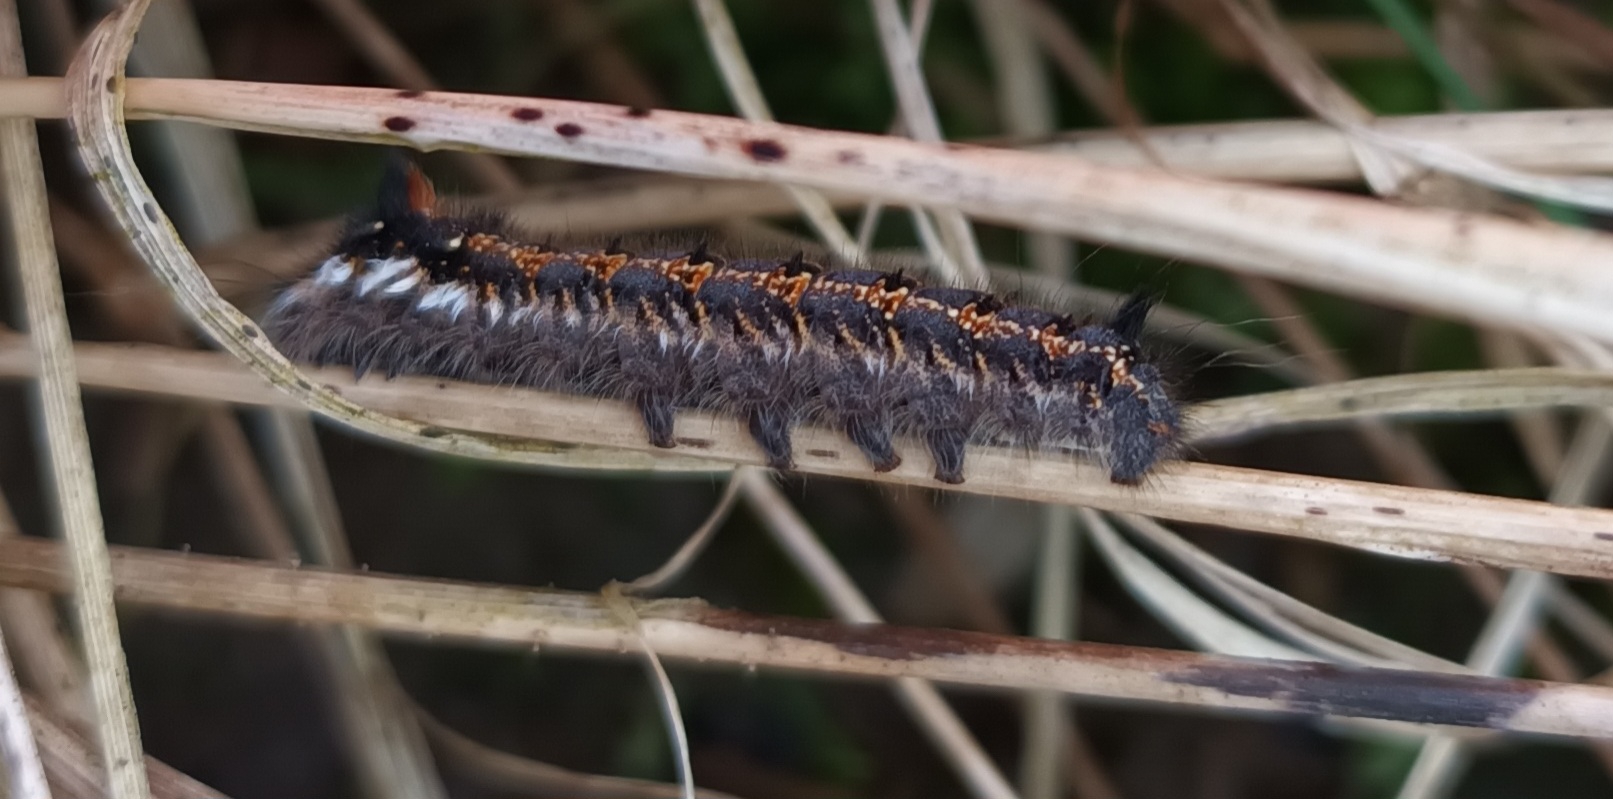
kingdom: Animalia
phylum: Arthropoda
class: Insecta
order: Lepidoptera
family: Lasiocampidae
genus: Euthrix
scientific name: Euthrix potatoria
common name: Græsspinder
